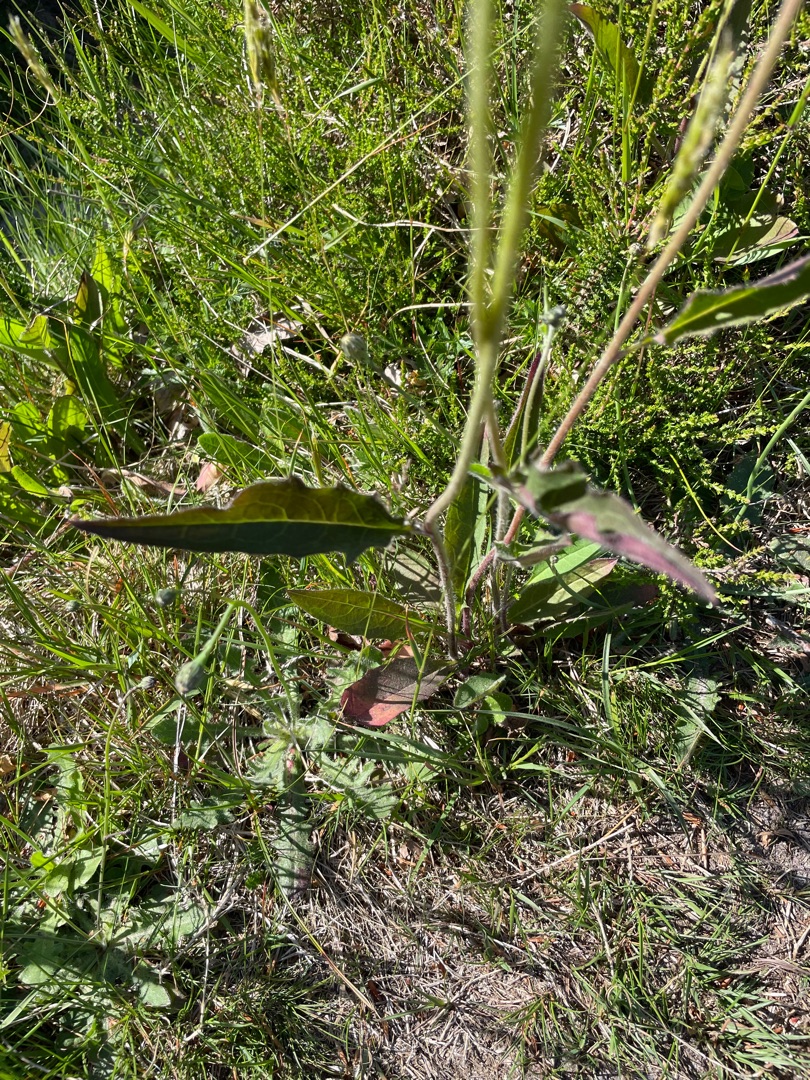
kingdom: Plantae
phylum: Tracheophyta
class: Magnoliopsida
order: Asterales
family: Asteraceae
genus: Hieracium
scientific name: Hieracium
